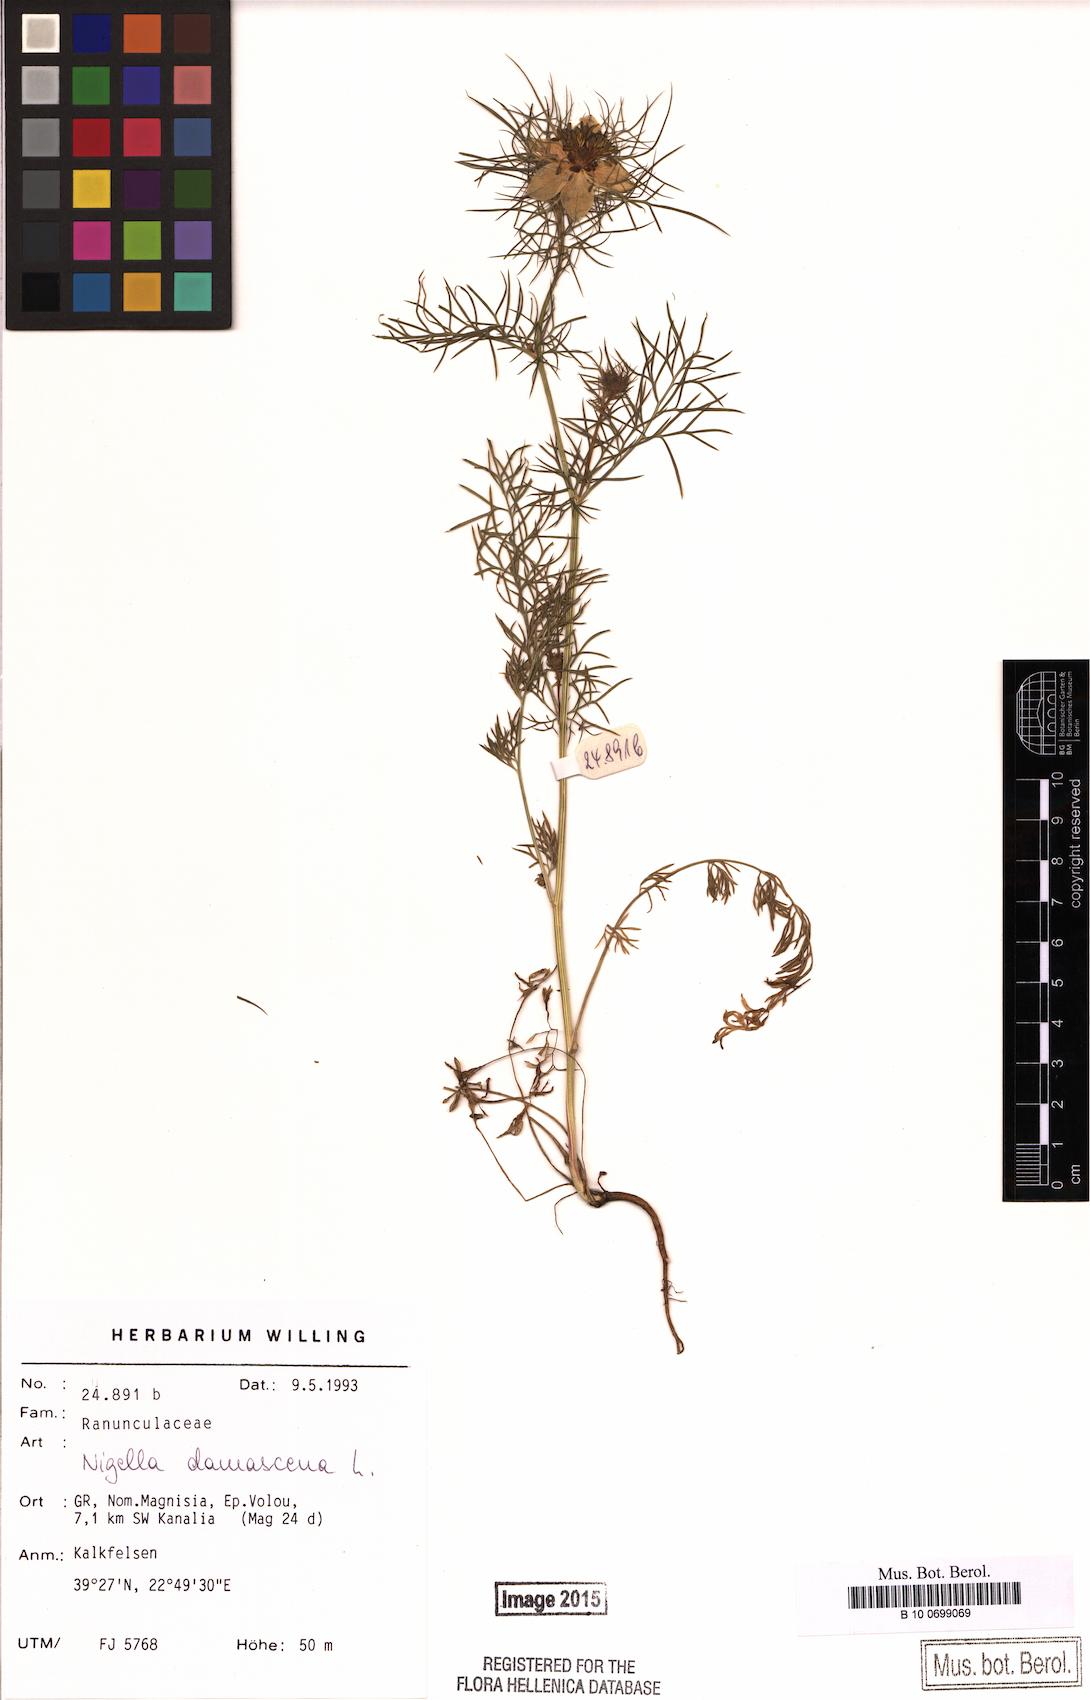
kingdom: Plantae
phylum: Tracheophyta
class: Magnoliopsida
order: Ranunculales
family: Ranunculaceae
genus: Nigella
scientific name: Nigella damascena
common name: Love-in-a-mist
